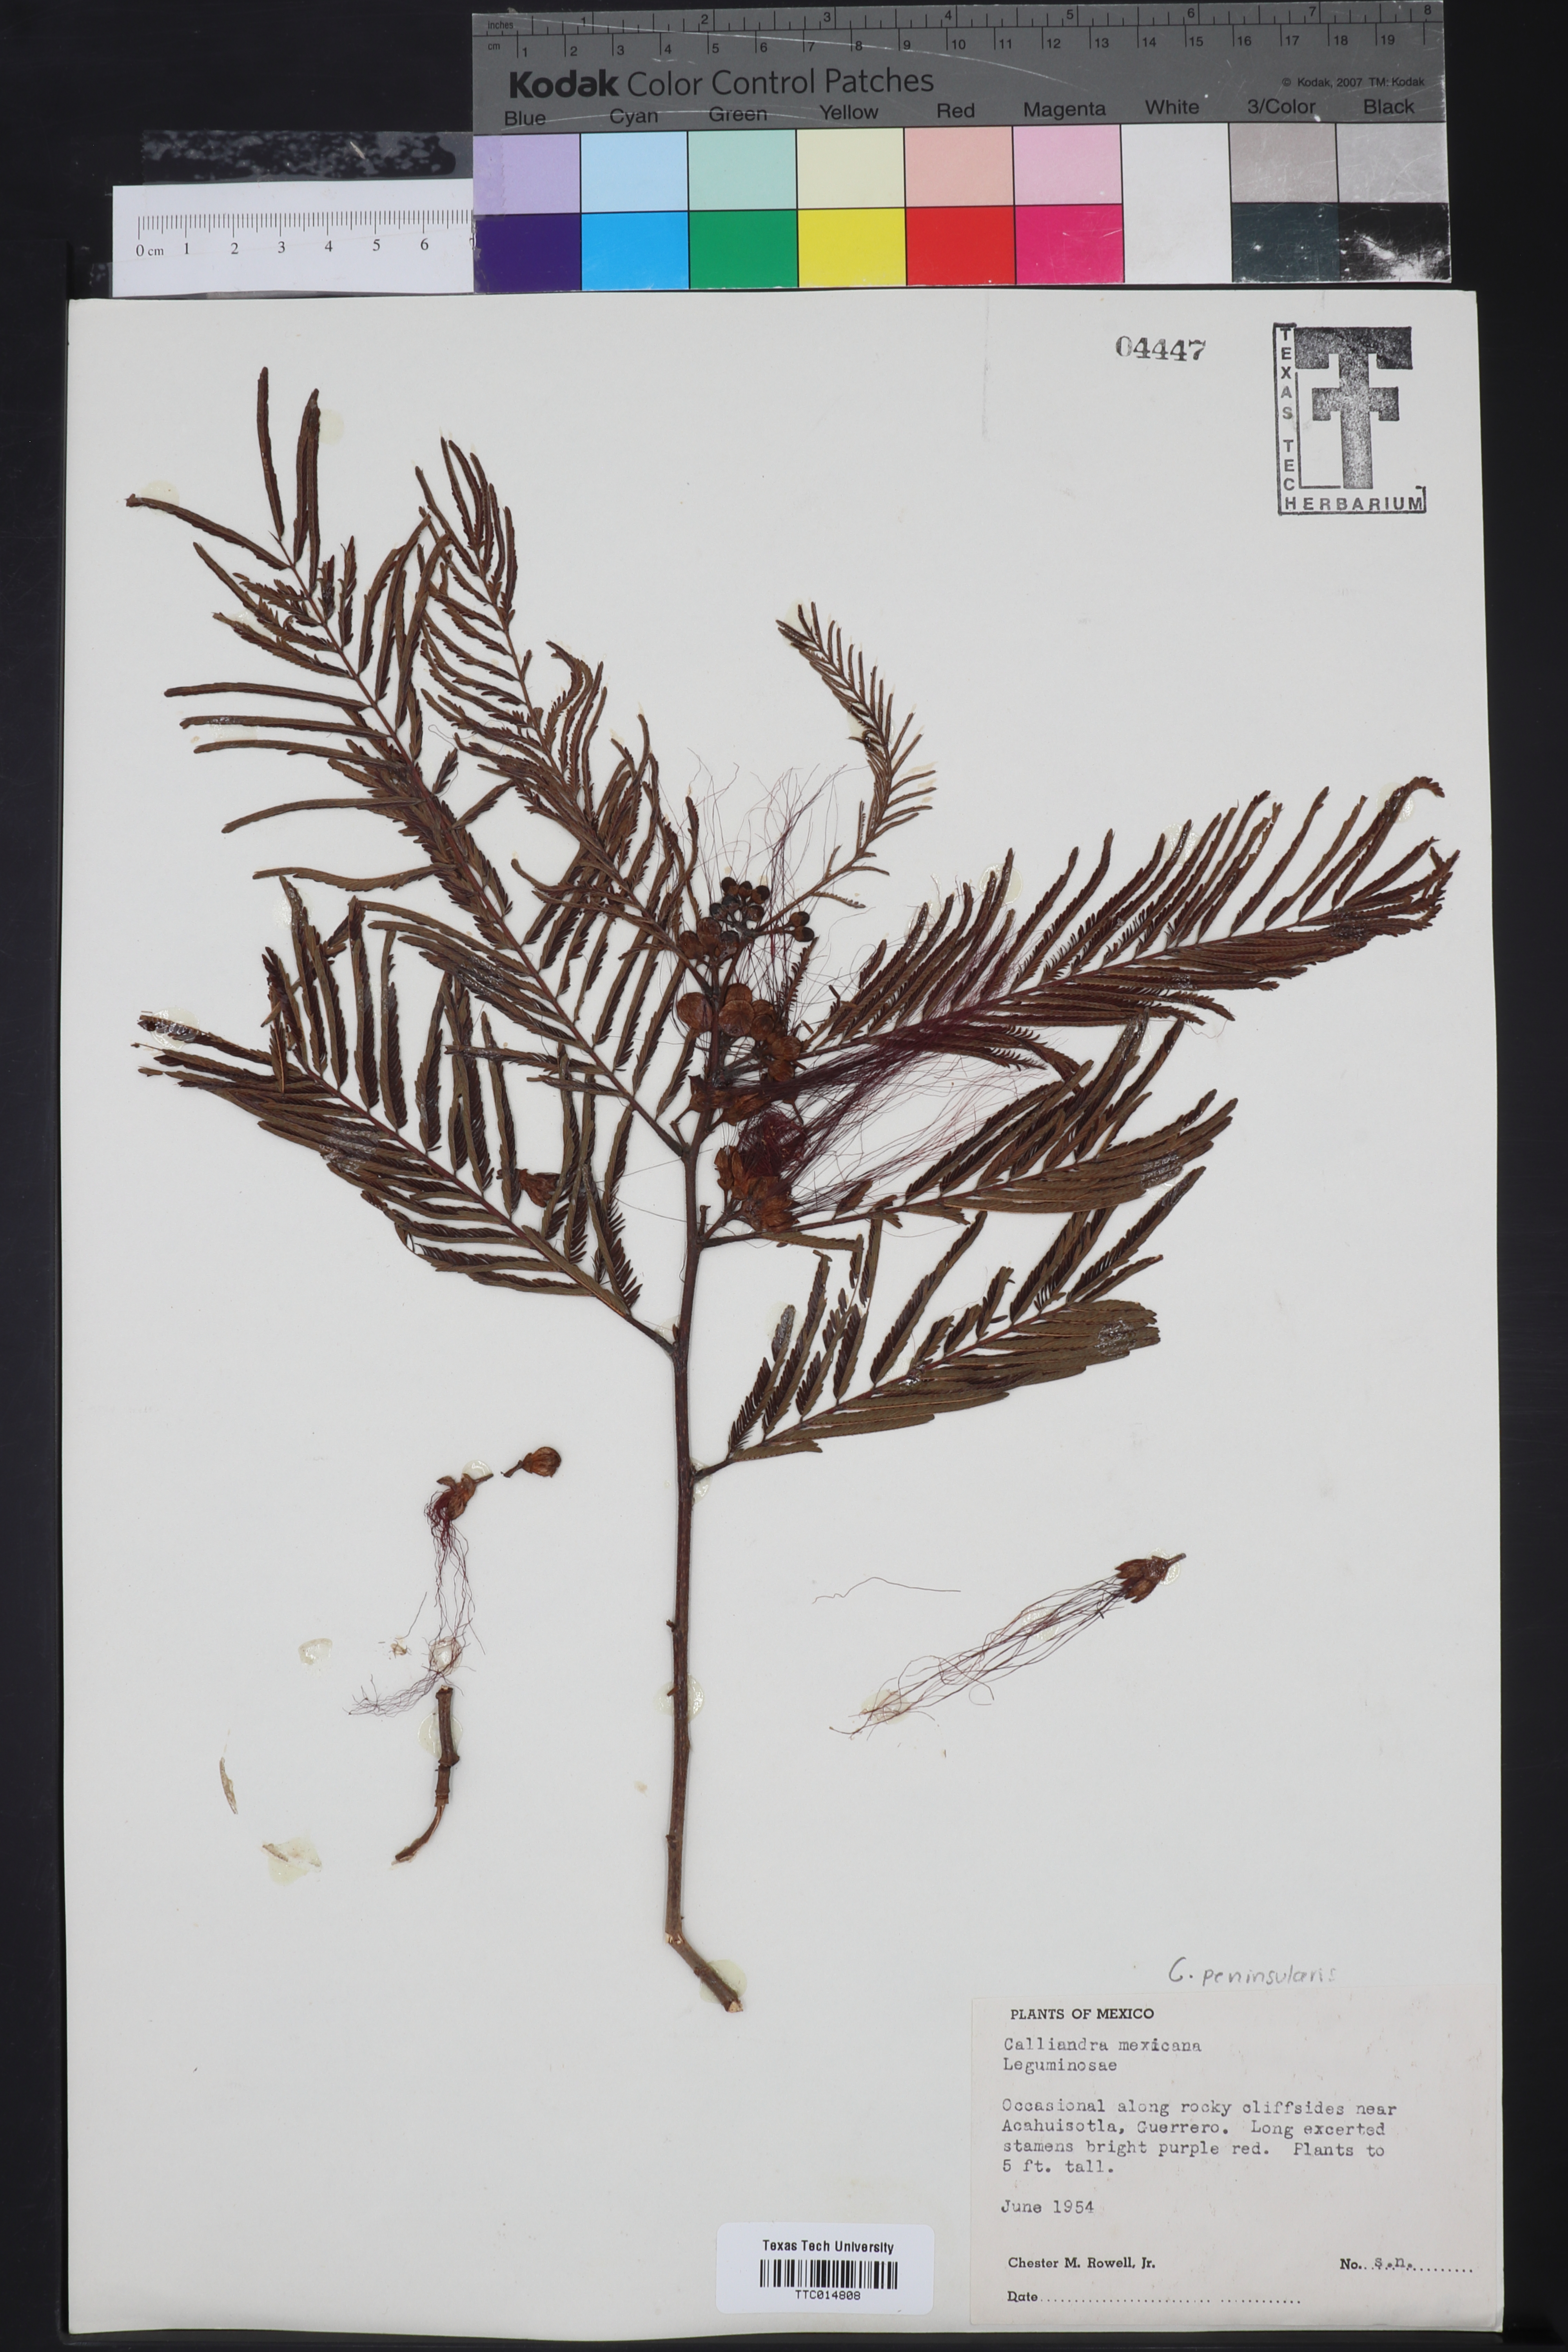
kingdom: Plantae
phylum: Tracheophyta
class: Magnoliopsida
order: Fabales
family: Fabaceae
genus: Calliandra
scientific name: Calliandra tergemina
